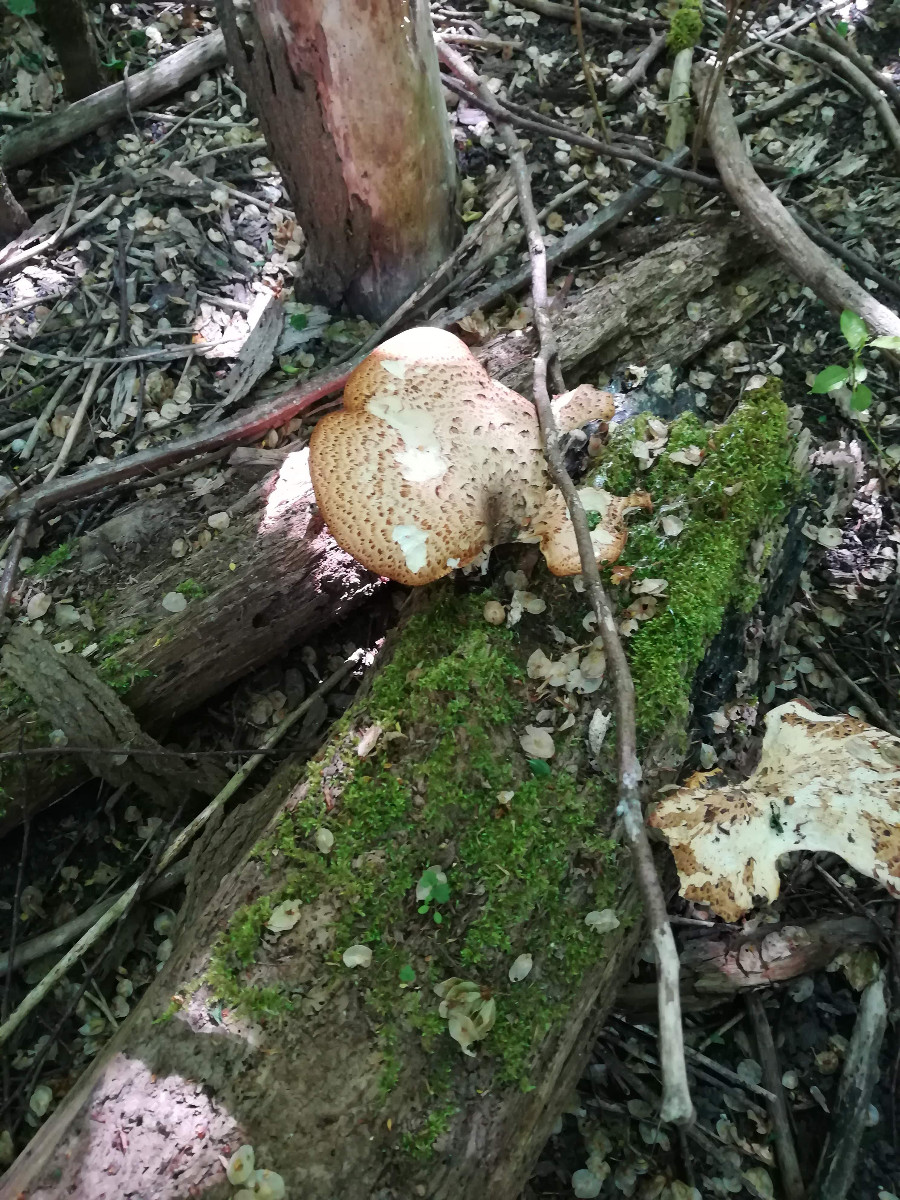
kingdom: Fungi
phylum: Basidiomycota
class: Agaricomycetes
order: Polyporales
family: Polyporaceae
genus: Cerioporus
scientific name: Cerioporus squamosus
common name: skællet stilkporesvamp
